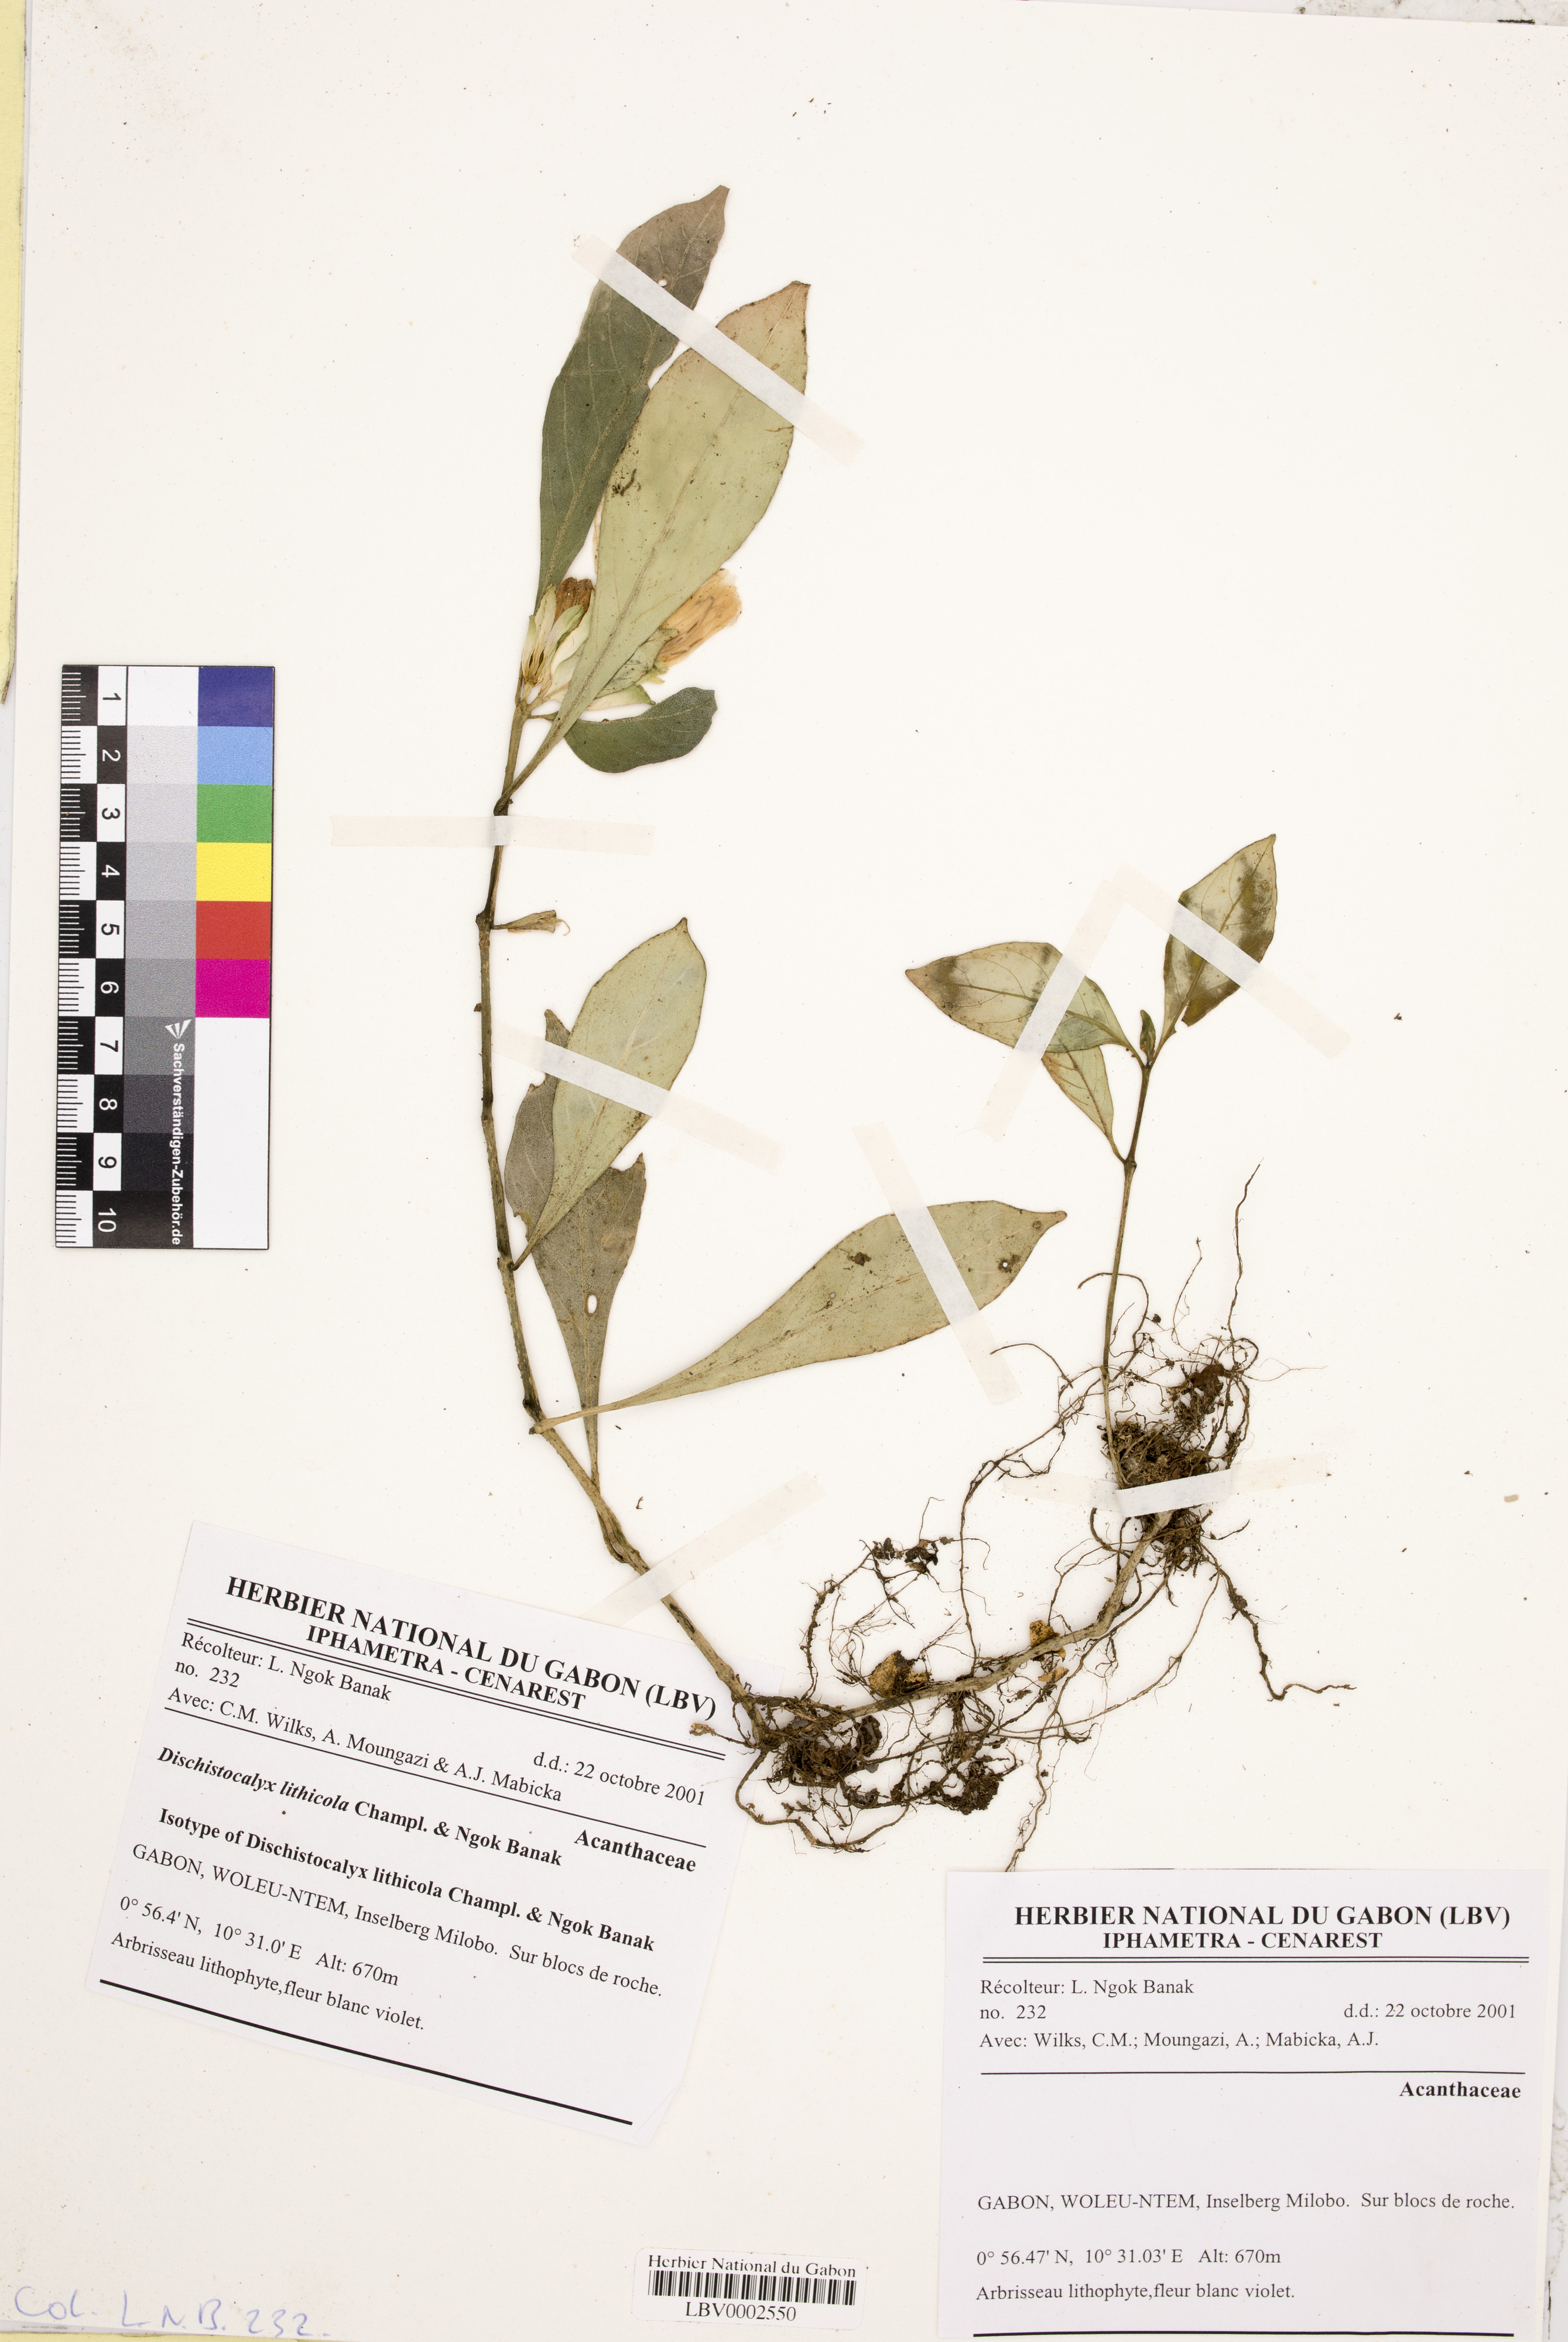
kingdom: Plantae
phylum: Tracheophyta
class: Magnoliopsida
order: Lamiales
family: Acanthaceae
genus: Dischistocalyx
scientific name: Dischistocalyx lithicola
